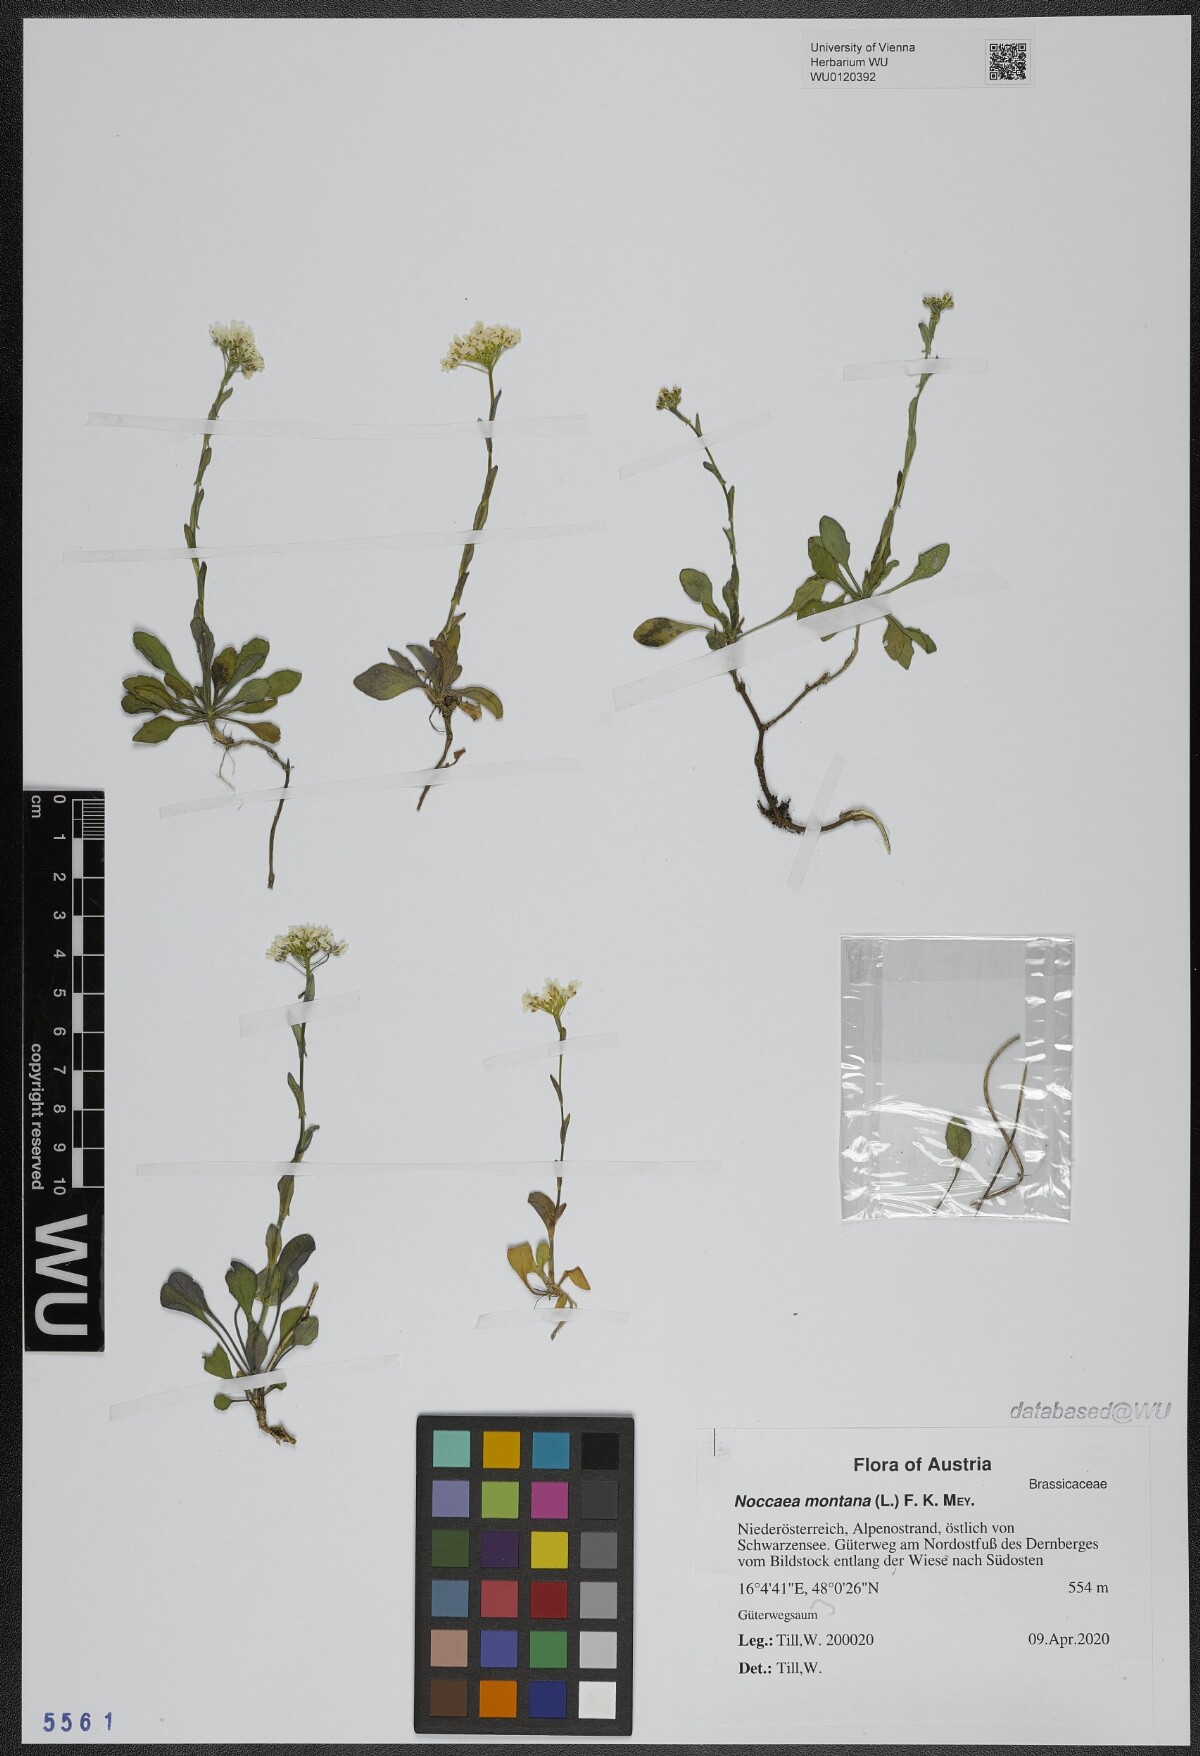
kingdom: Plantae
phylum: Tracheophyta
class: Magnoliopsida
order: Brassicales
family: Brassicaceae
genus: Noccaea
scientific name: Noccaea montana
